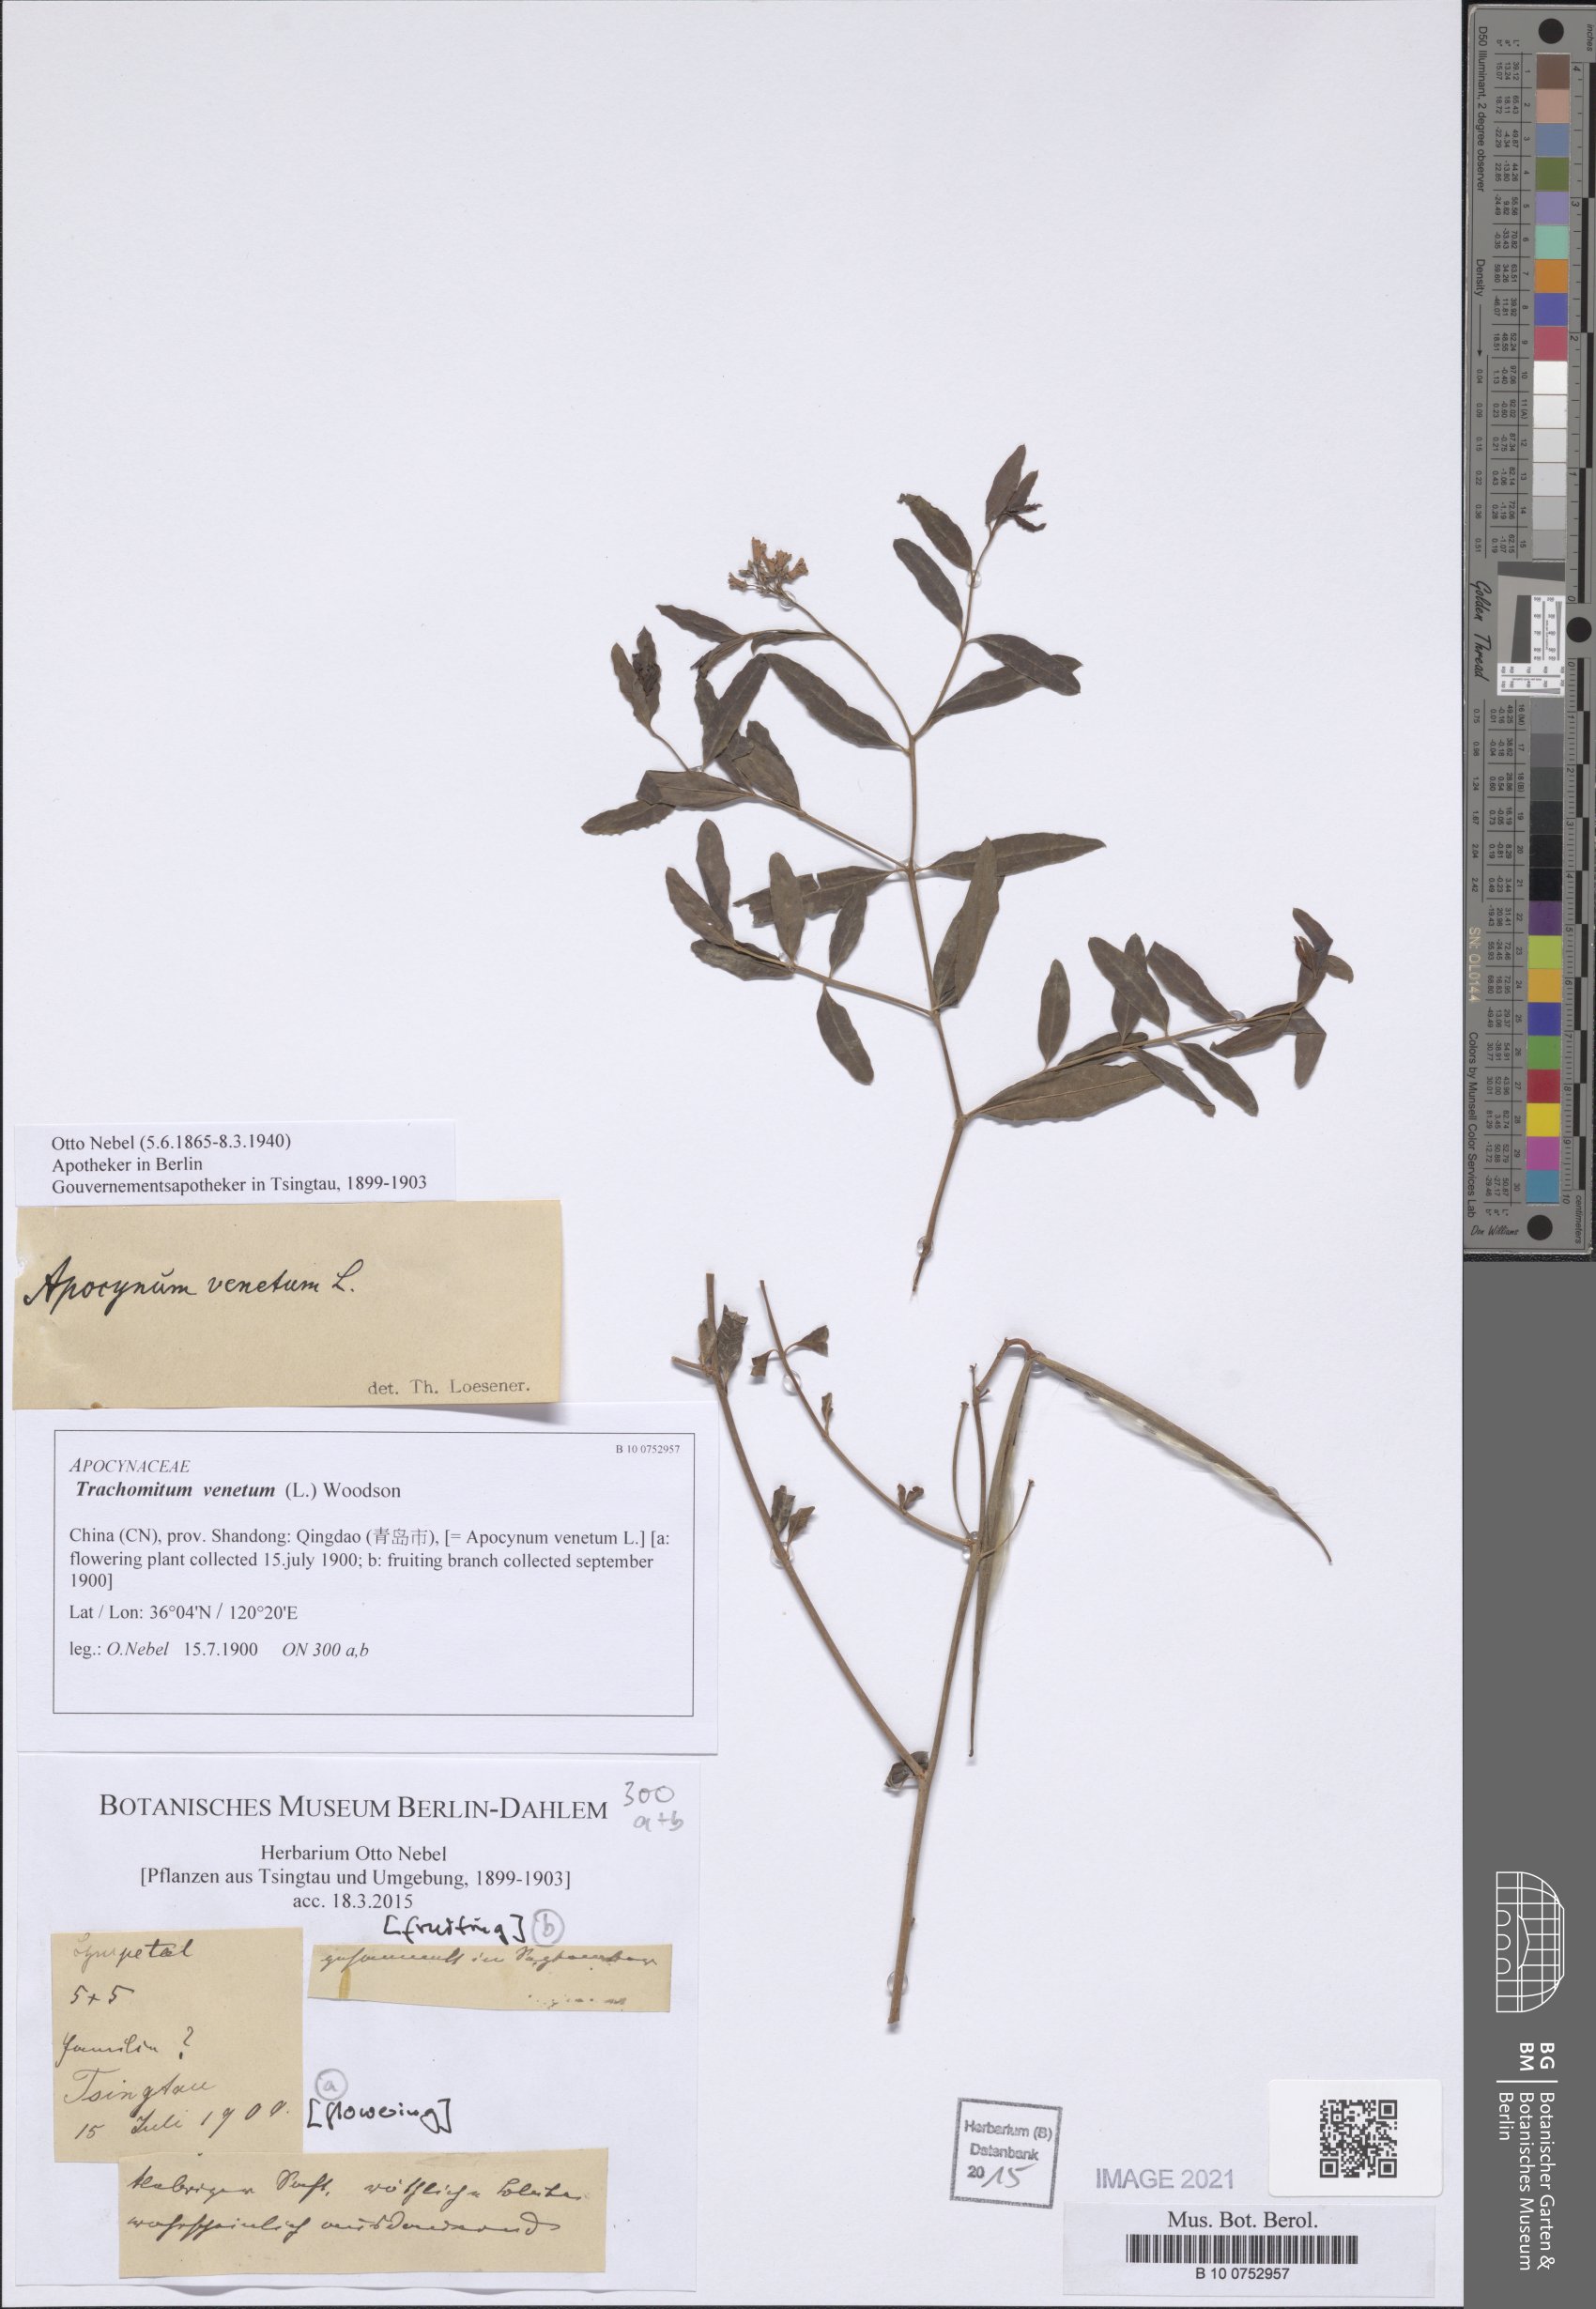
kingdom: Plantae
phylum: Tracheophyta
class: Magnoliopsida
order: Gentianales
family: Apocynaceae
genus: Poacynum
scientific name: Poacynum venetum
